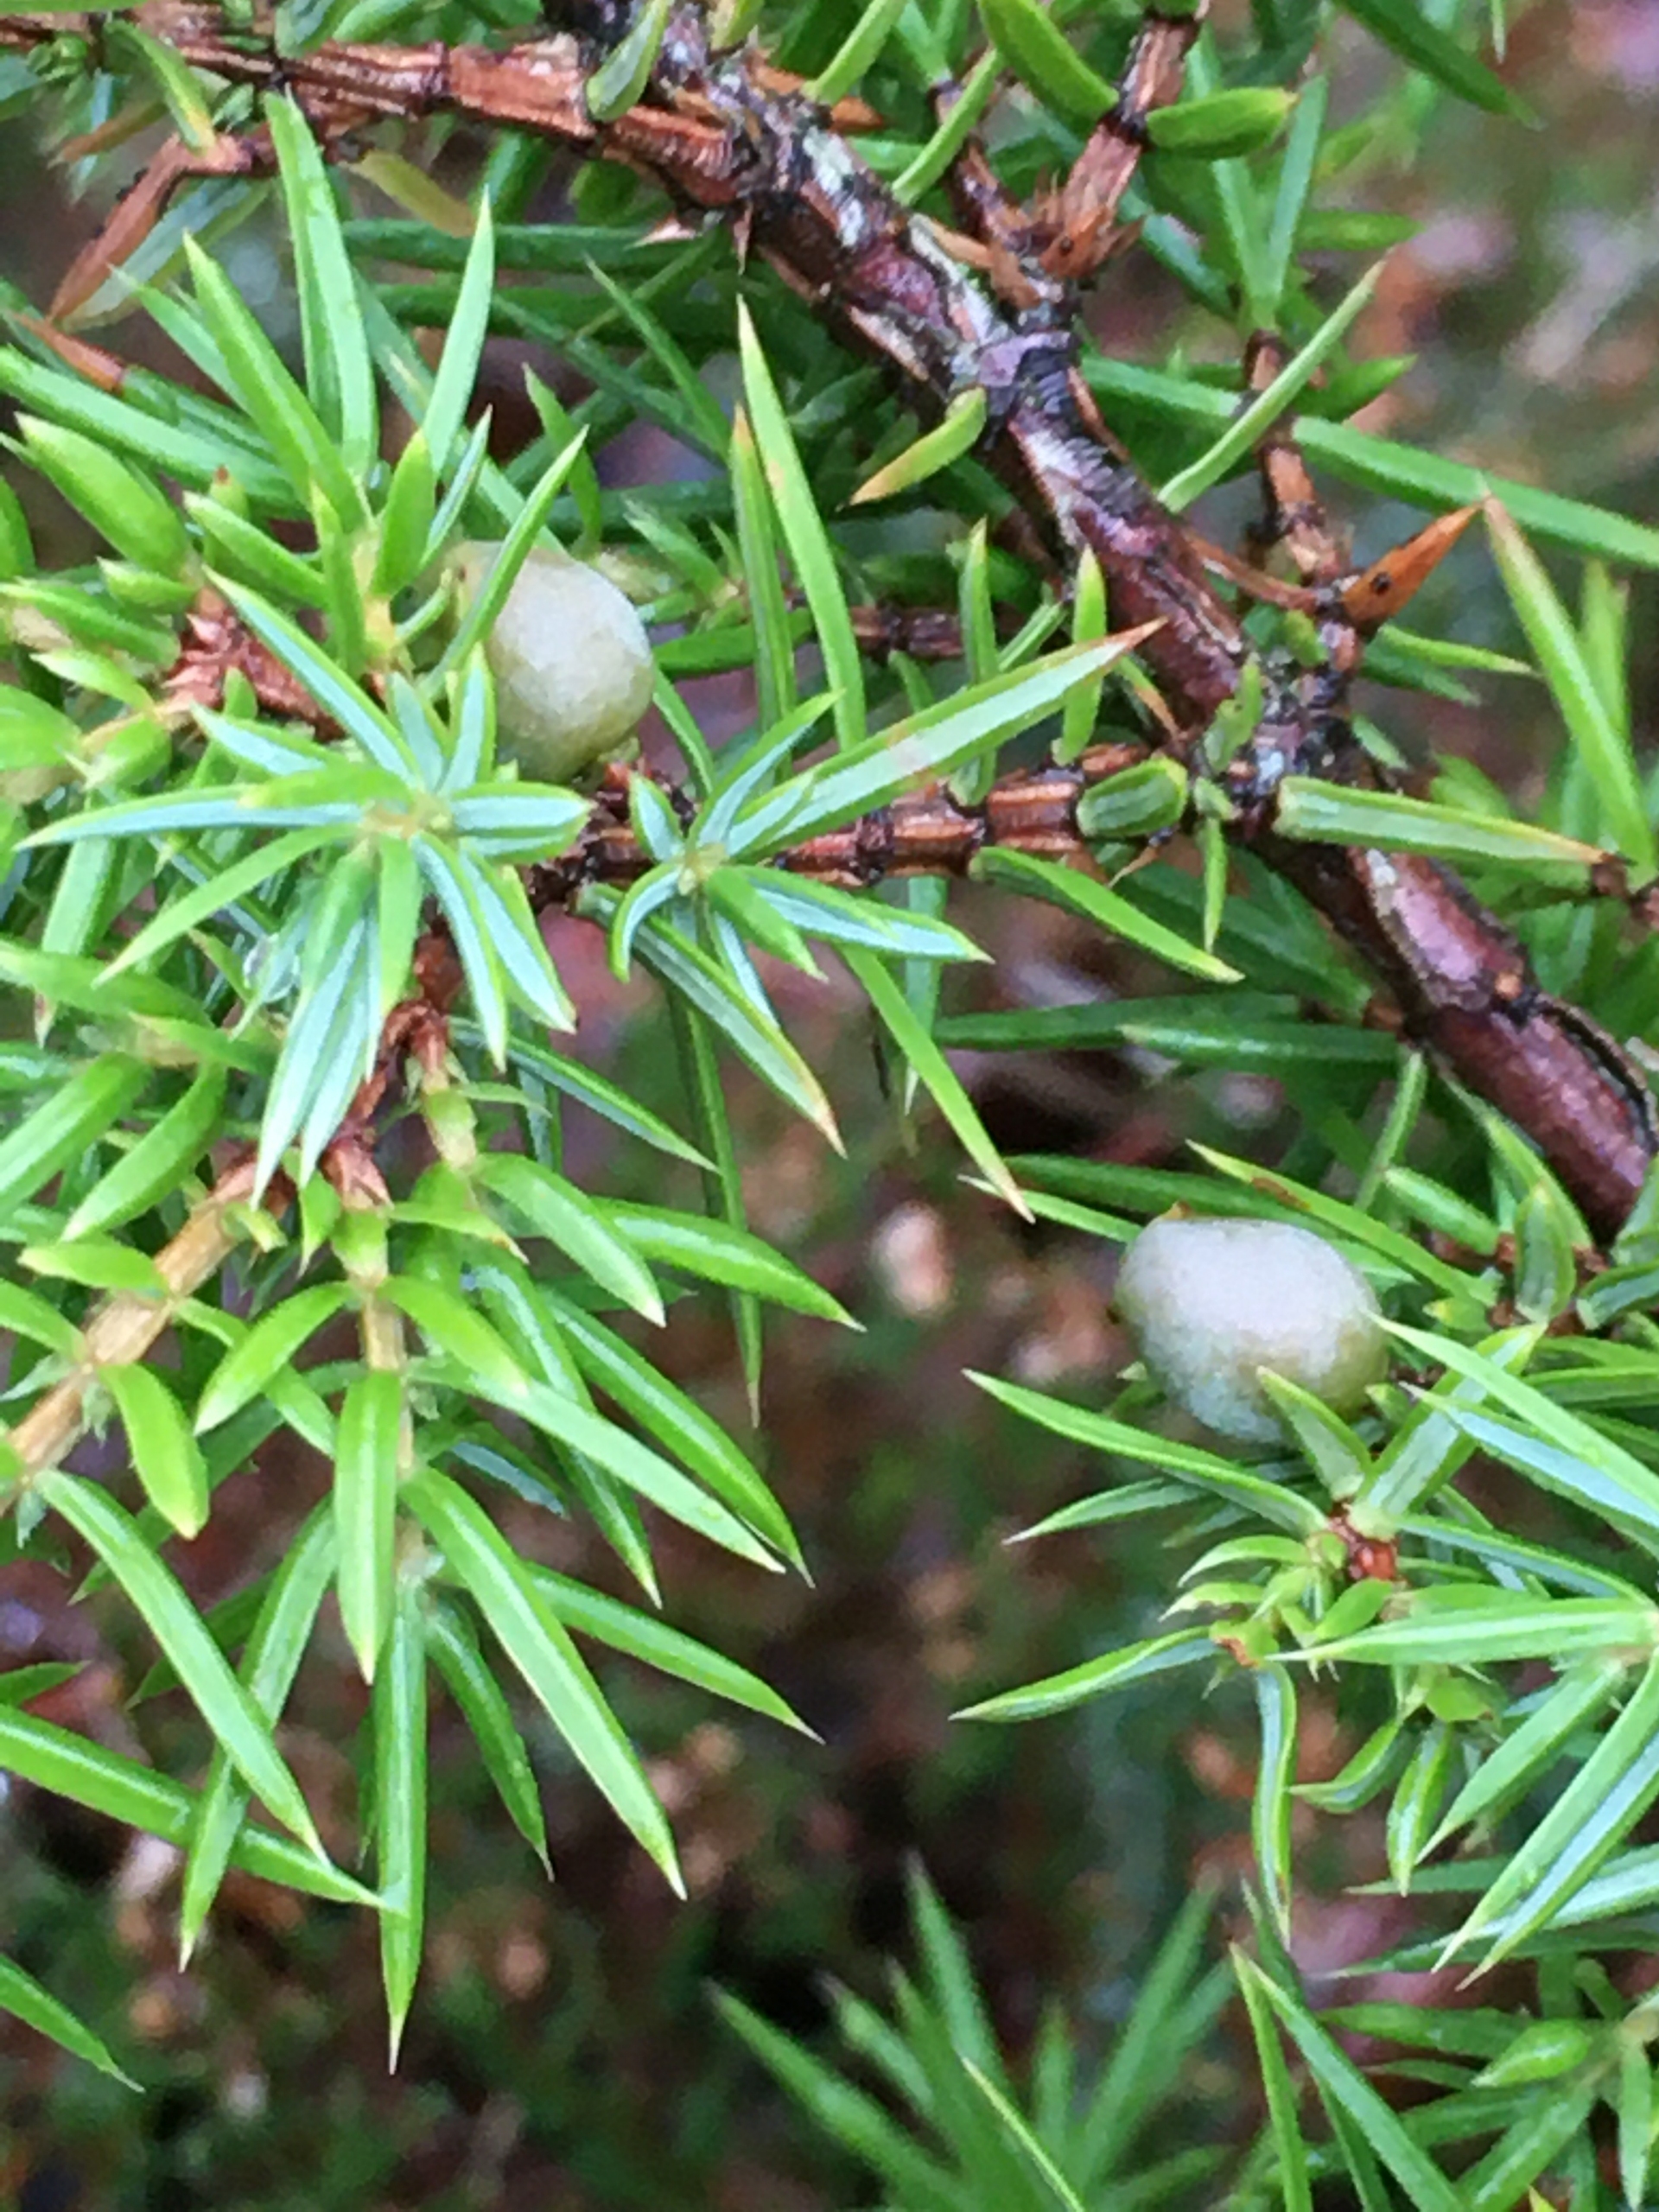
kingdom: Plantae
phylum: Tracheophyta
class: Pinopsida
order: Pinales
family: Cupressaceae
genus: Juniperus
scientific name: Juniperus communis
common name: Almindelig ene
